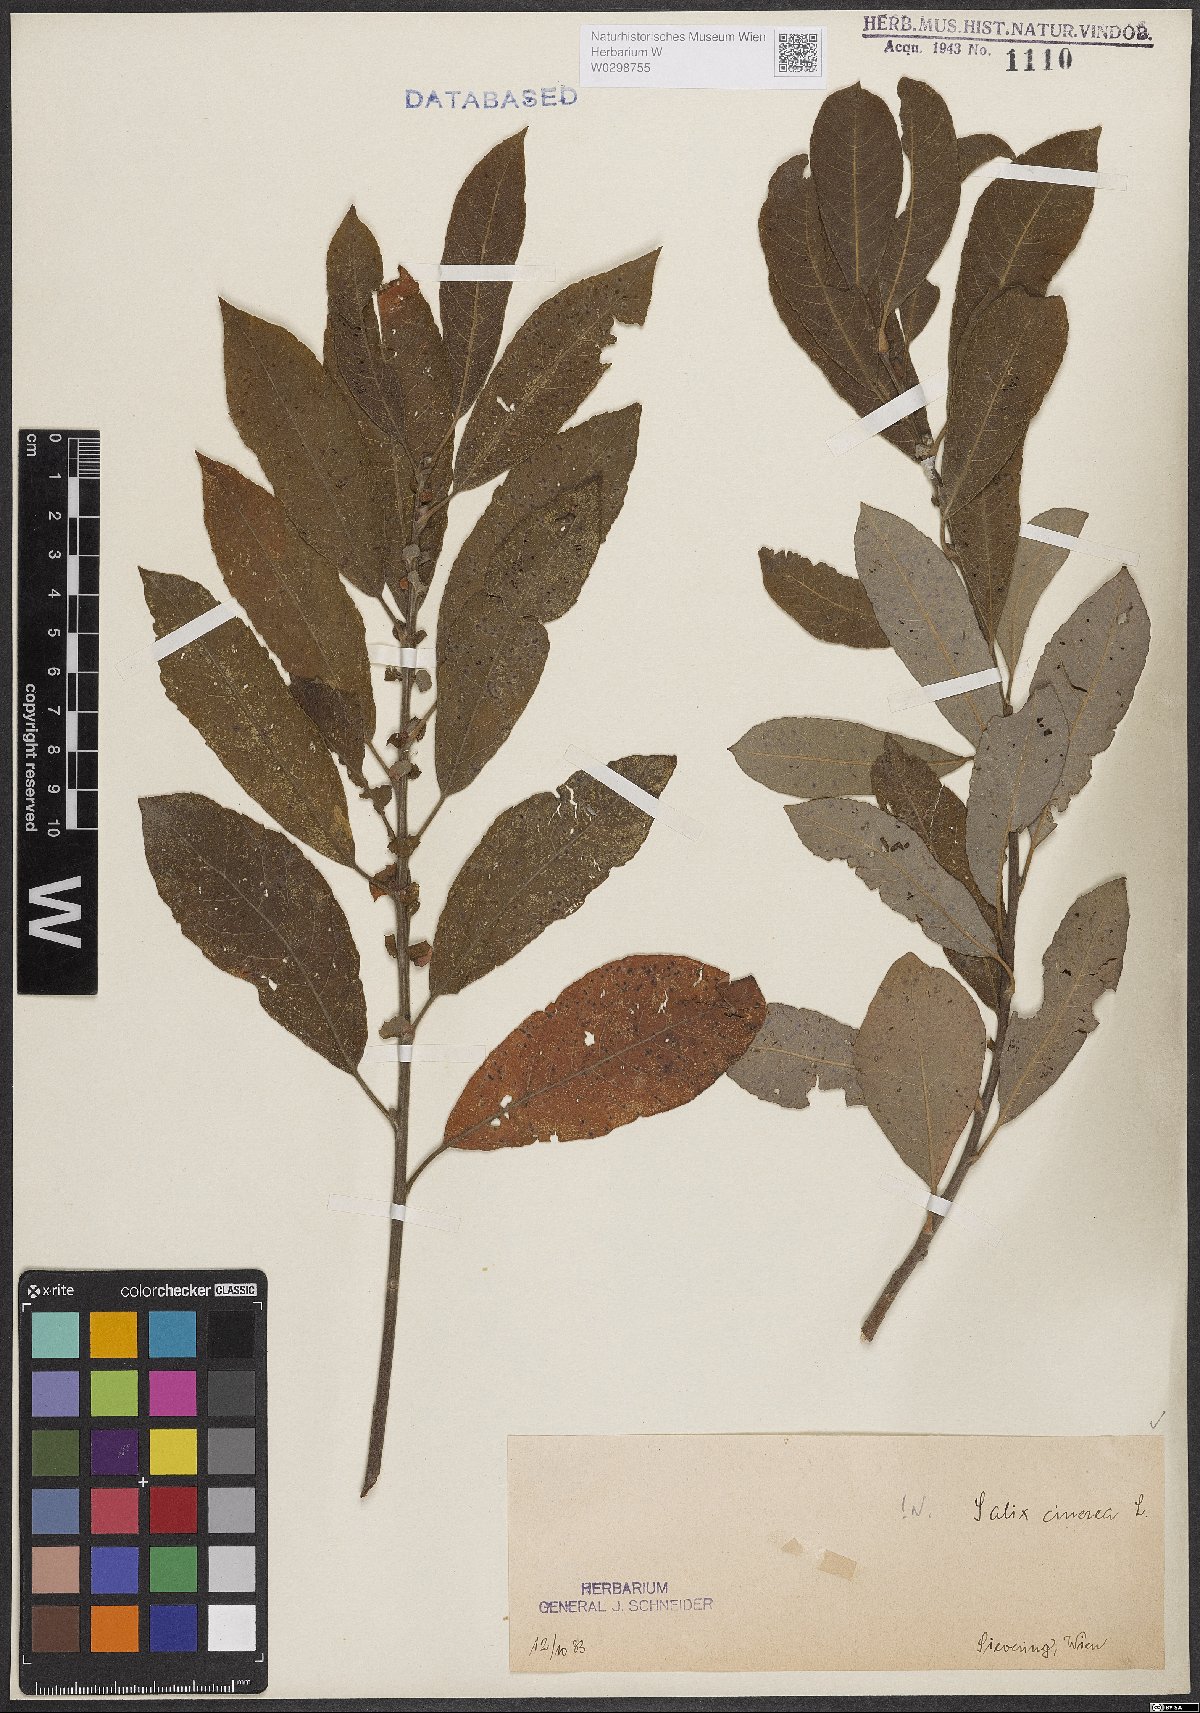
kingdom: Plantae
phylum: Tracheophyta
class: Magnoliopsida
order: Malpighiales
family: Salicaceae
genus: Salix
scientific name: Salix cinerea
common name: Common sallow
